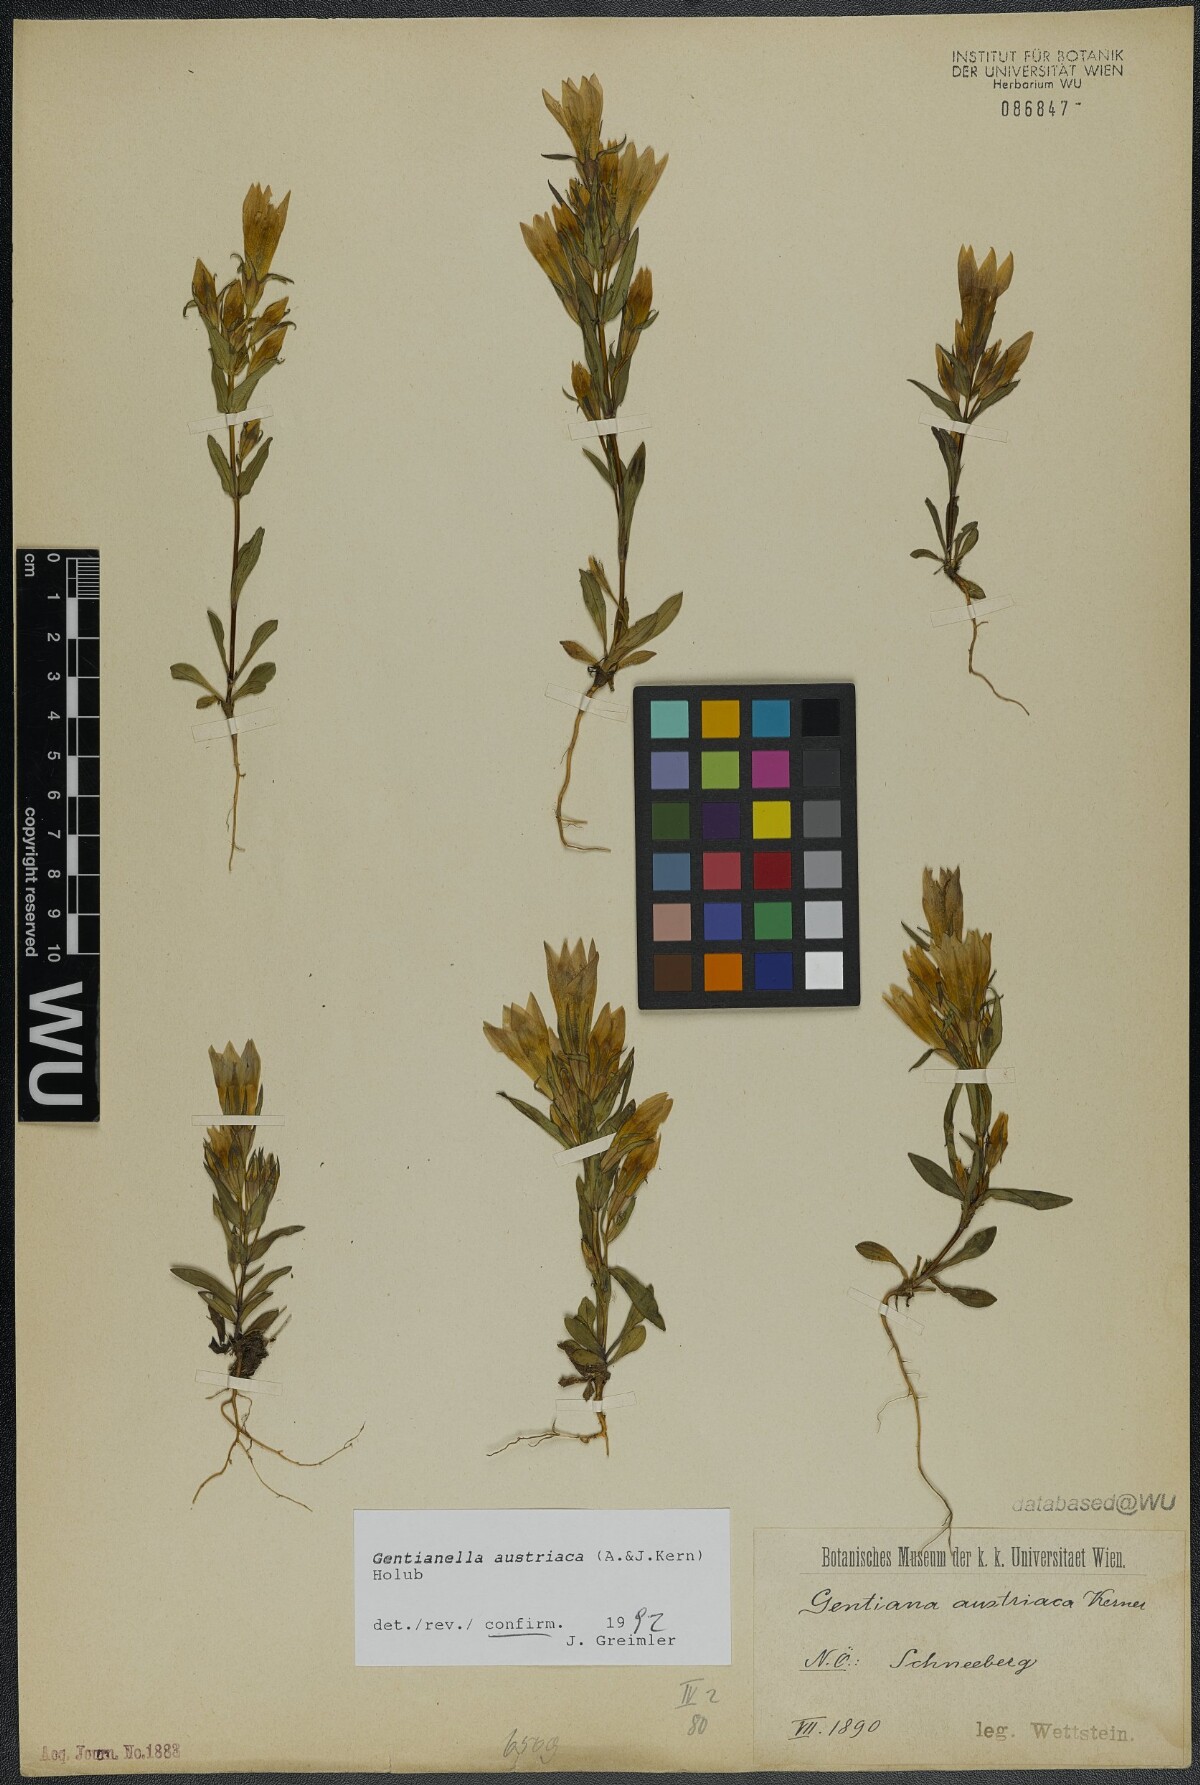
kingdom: Plantae
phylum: Tracheophyta
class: Magnoliopsida
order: Gentianales
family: Gentianaceae
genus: Gentianella
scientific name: Gentianella austriaca
